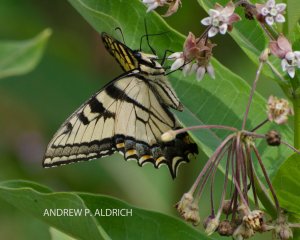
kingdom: Animalia
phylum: Arthropoda
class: Insecta
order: Lepidoptera
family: Papilionidae
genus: Pterourus
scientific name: Pterourus canadensis
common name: Canadian Tiger Swallowtail
